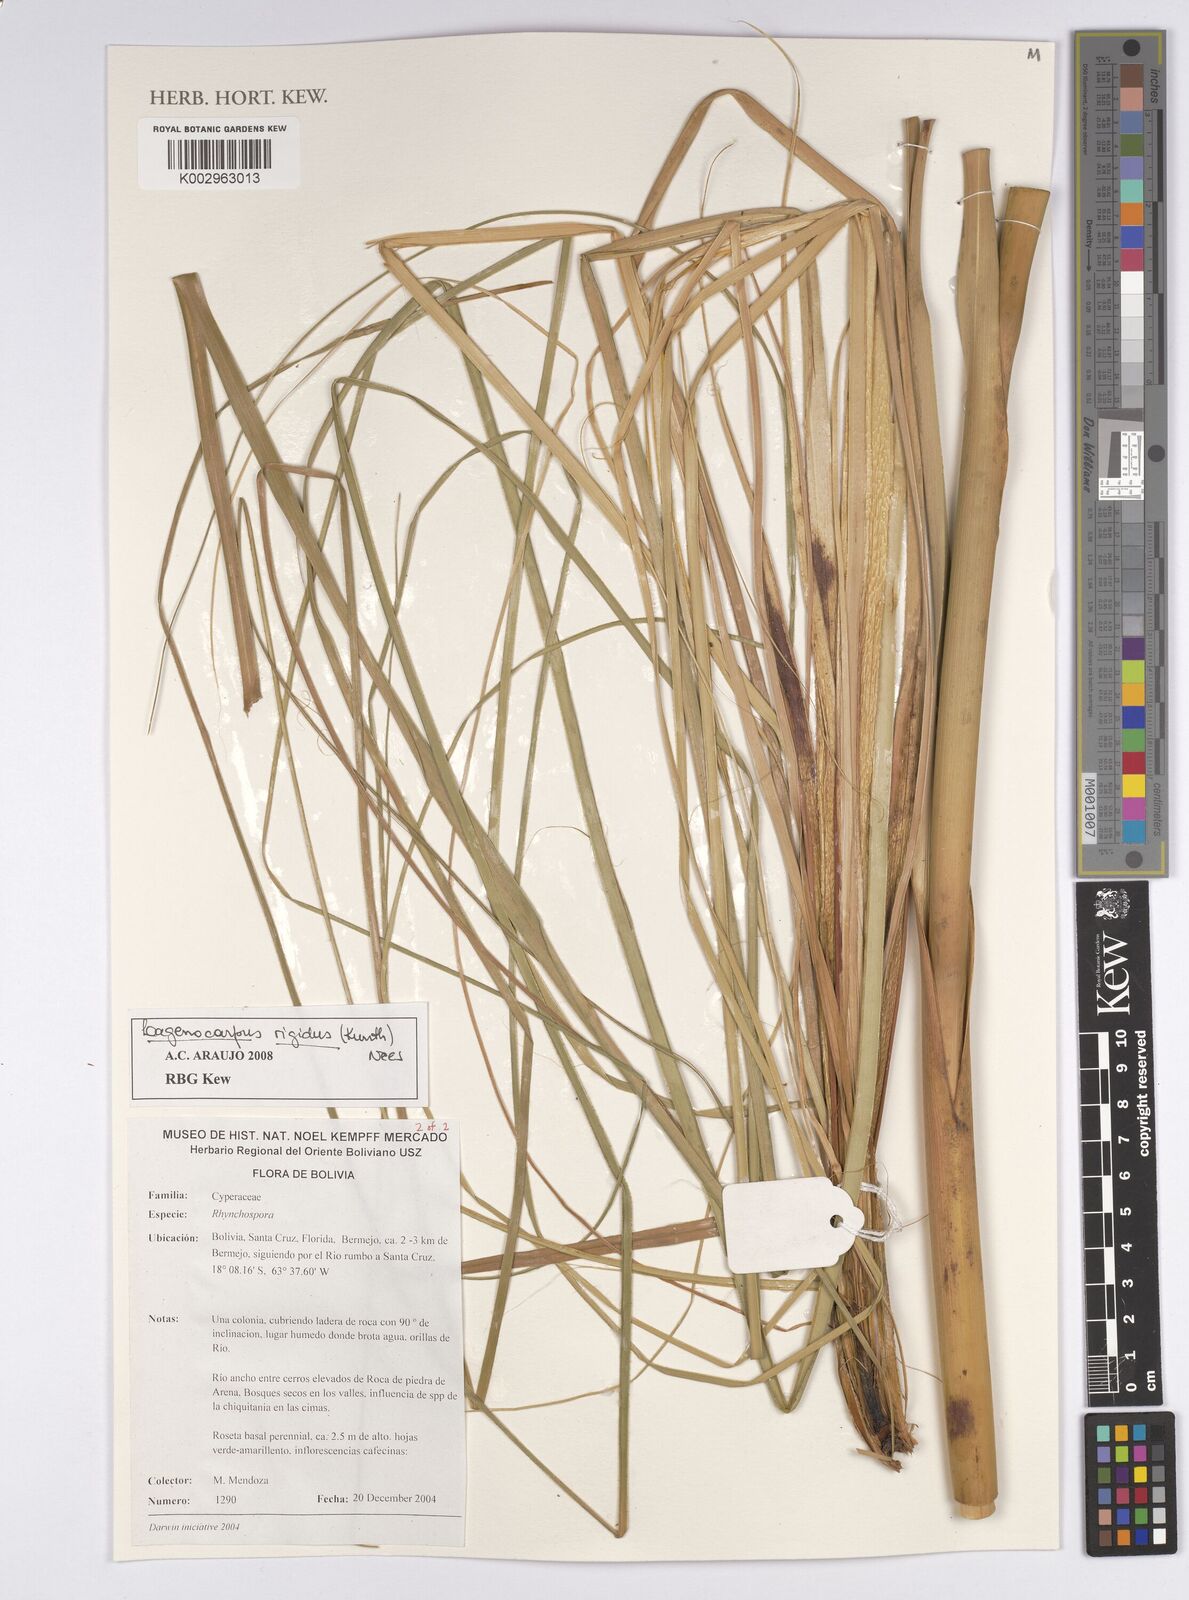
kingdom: Plantae
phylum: Tracheophyta
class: Liliopsida
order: Poales
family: Cyperaceae
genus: Lagenocarpus
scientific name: Lagenocarpus rigidus
